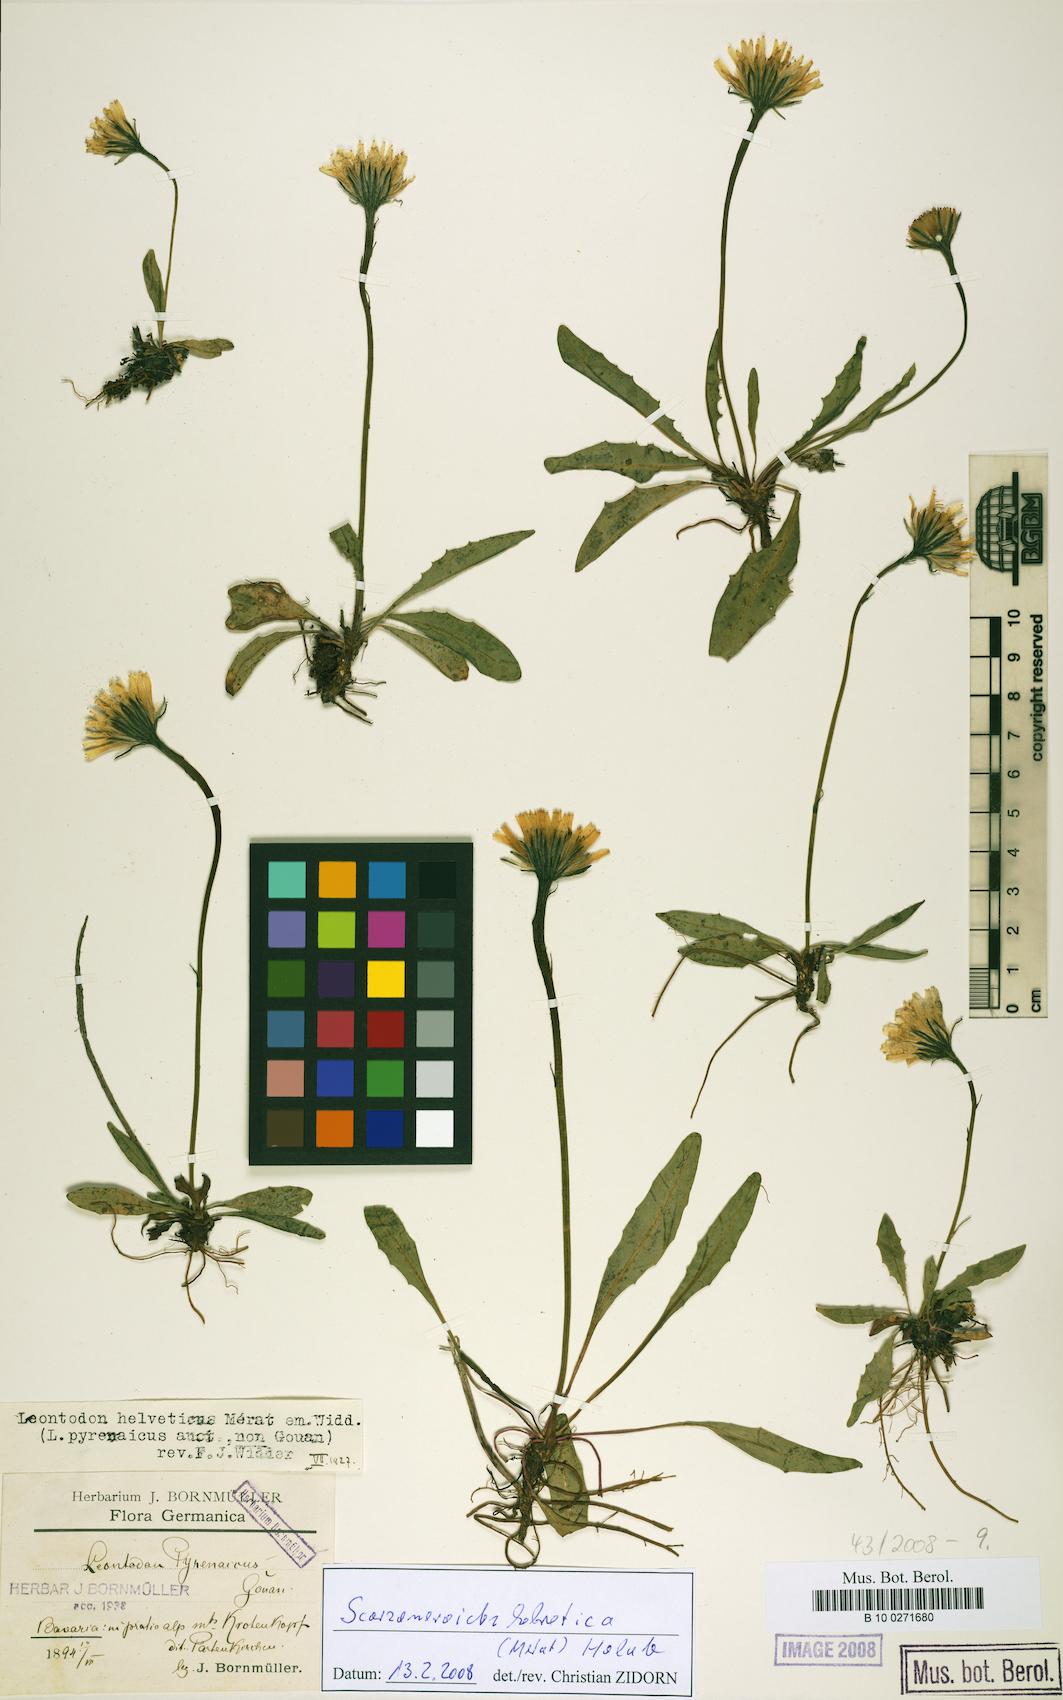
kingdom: Plantae
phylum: Tracheophyta
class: Magnoliopsida
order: Asterales
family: Asteraceae
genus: Scorzoneroides
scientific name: Scorzoneroides helvetica
